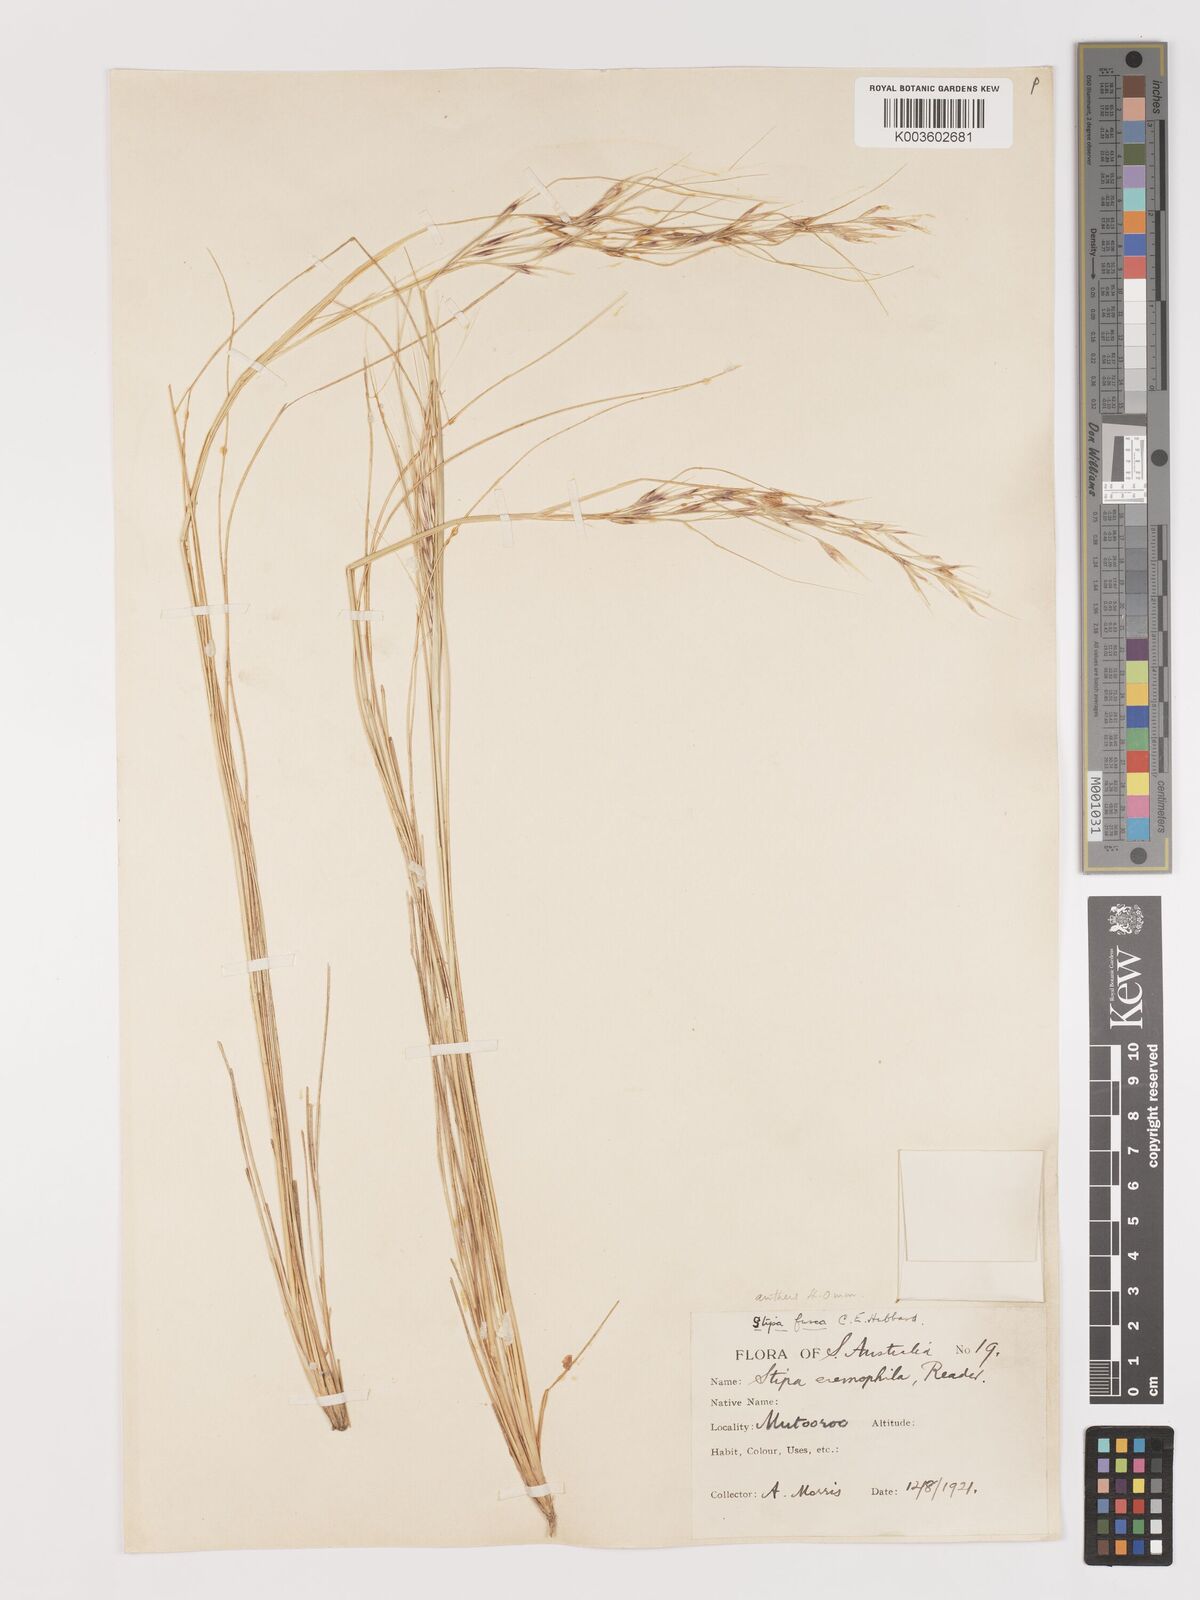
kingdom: Plantae
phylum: Tracheophyta
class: Liliopsida
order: Poales
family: Poaceae
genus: Austrostipa
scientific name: Austrostipa eremophila
